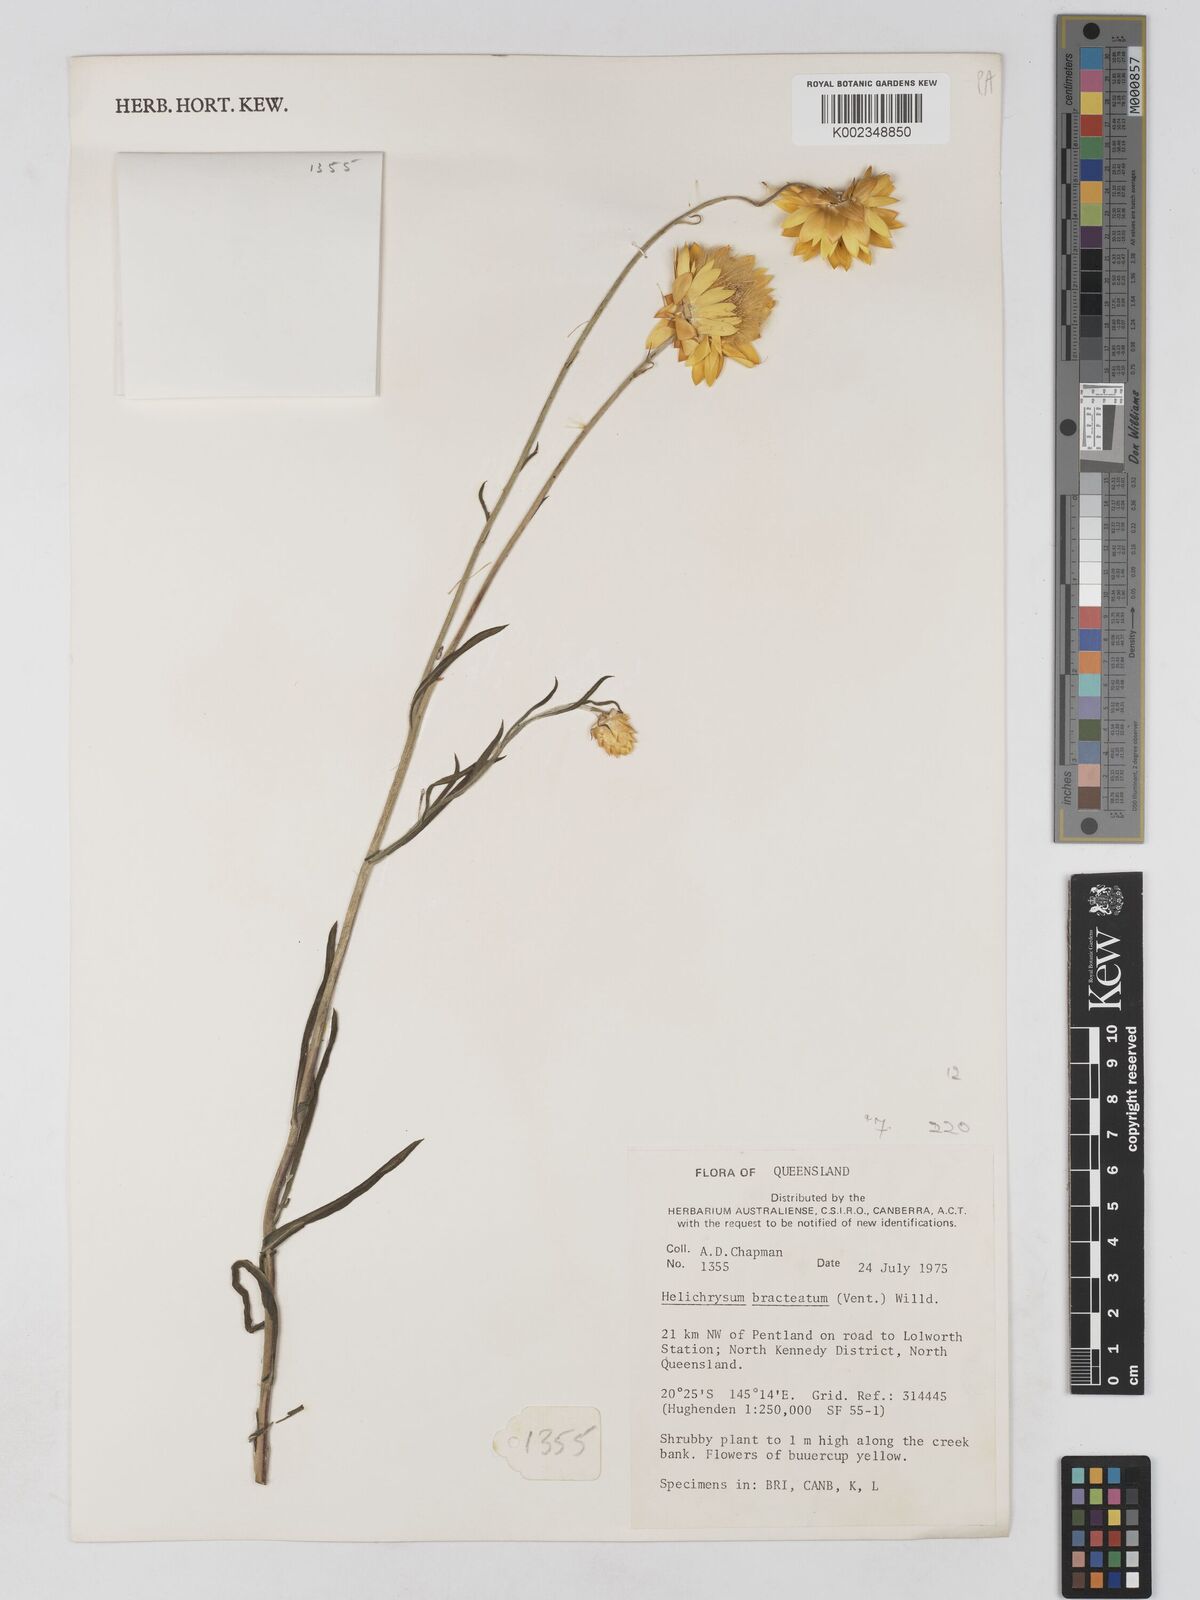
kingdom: Plantae
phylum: Tracheophyta
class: Magnoliopsida
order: Asterales
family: Asteraceae
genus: Xerochrysum
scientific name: Xerochrysum bracteatum
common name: Bracted strawflower
